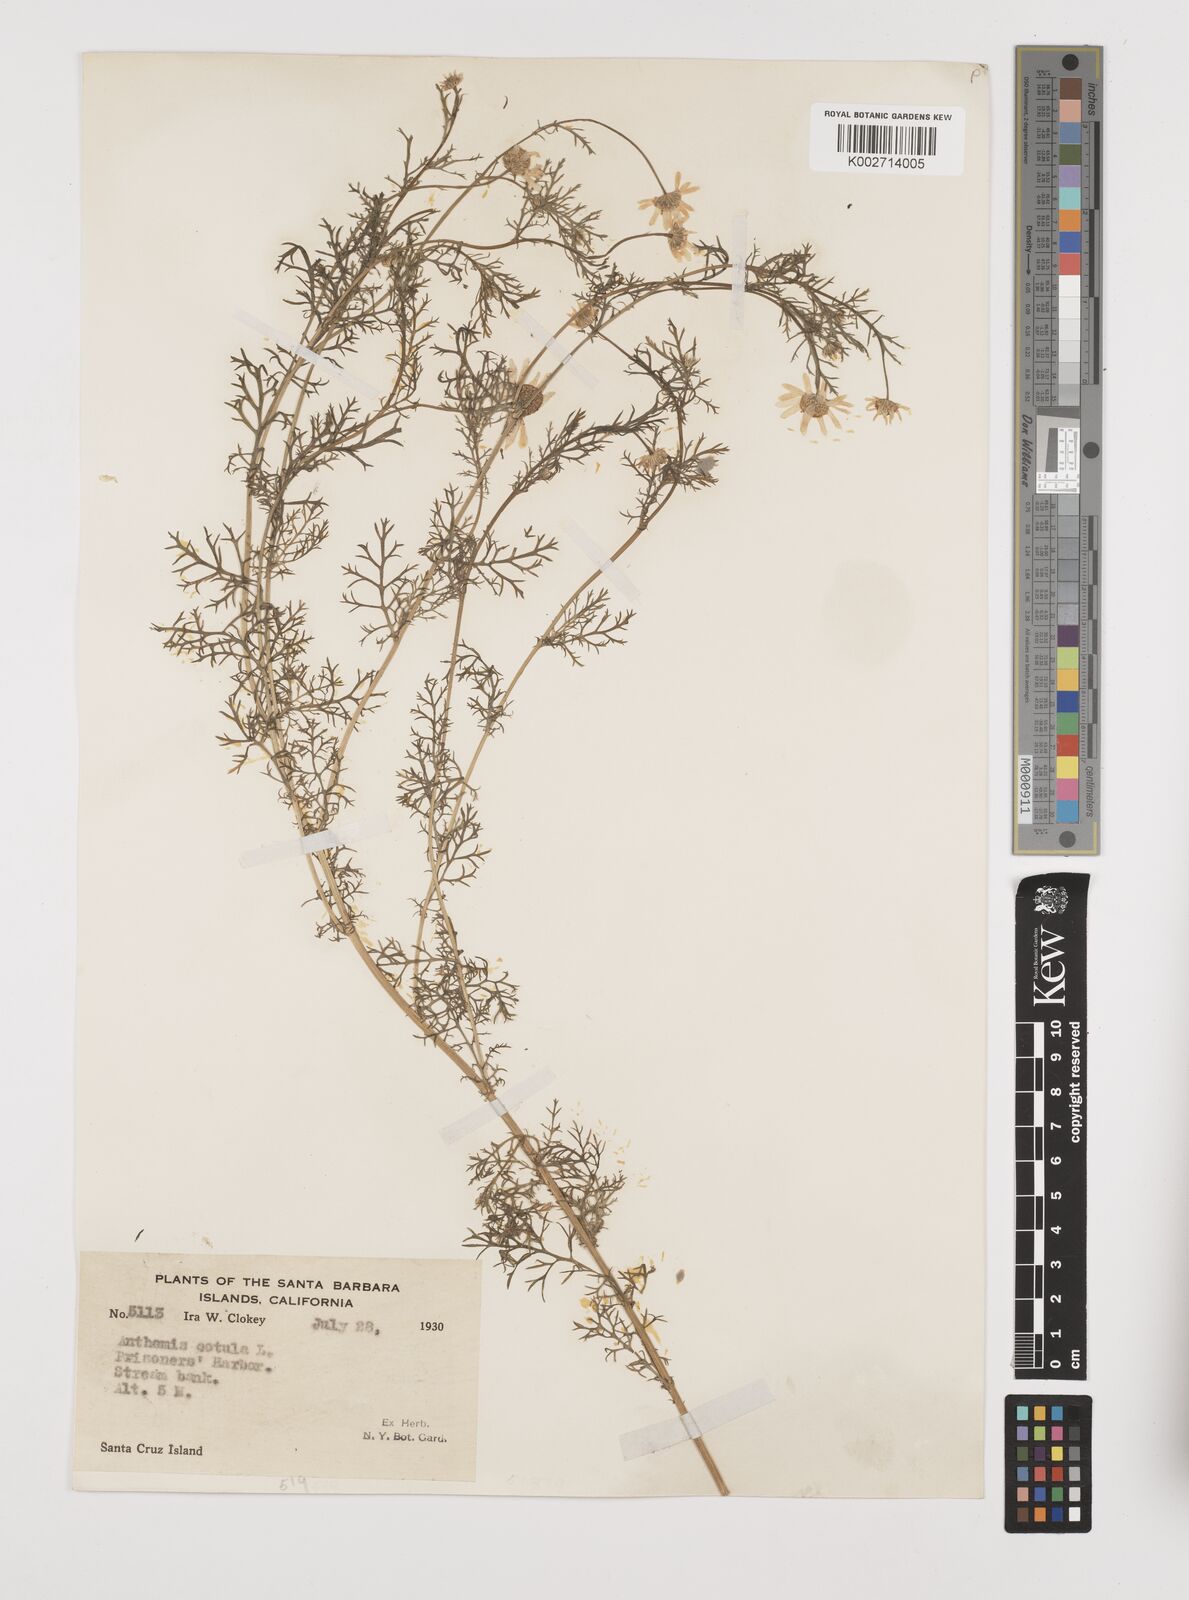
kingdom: Plantae
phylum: Tracheophyta
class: Magnoliopsida
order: Asterales
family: Asteraceae
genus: Anthemis
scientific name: Anthemis cotula
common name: Stinking chamomile
